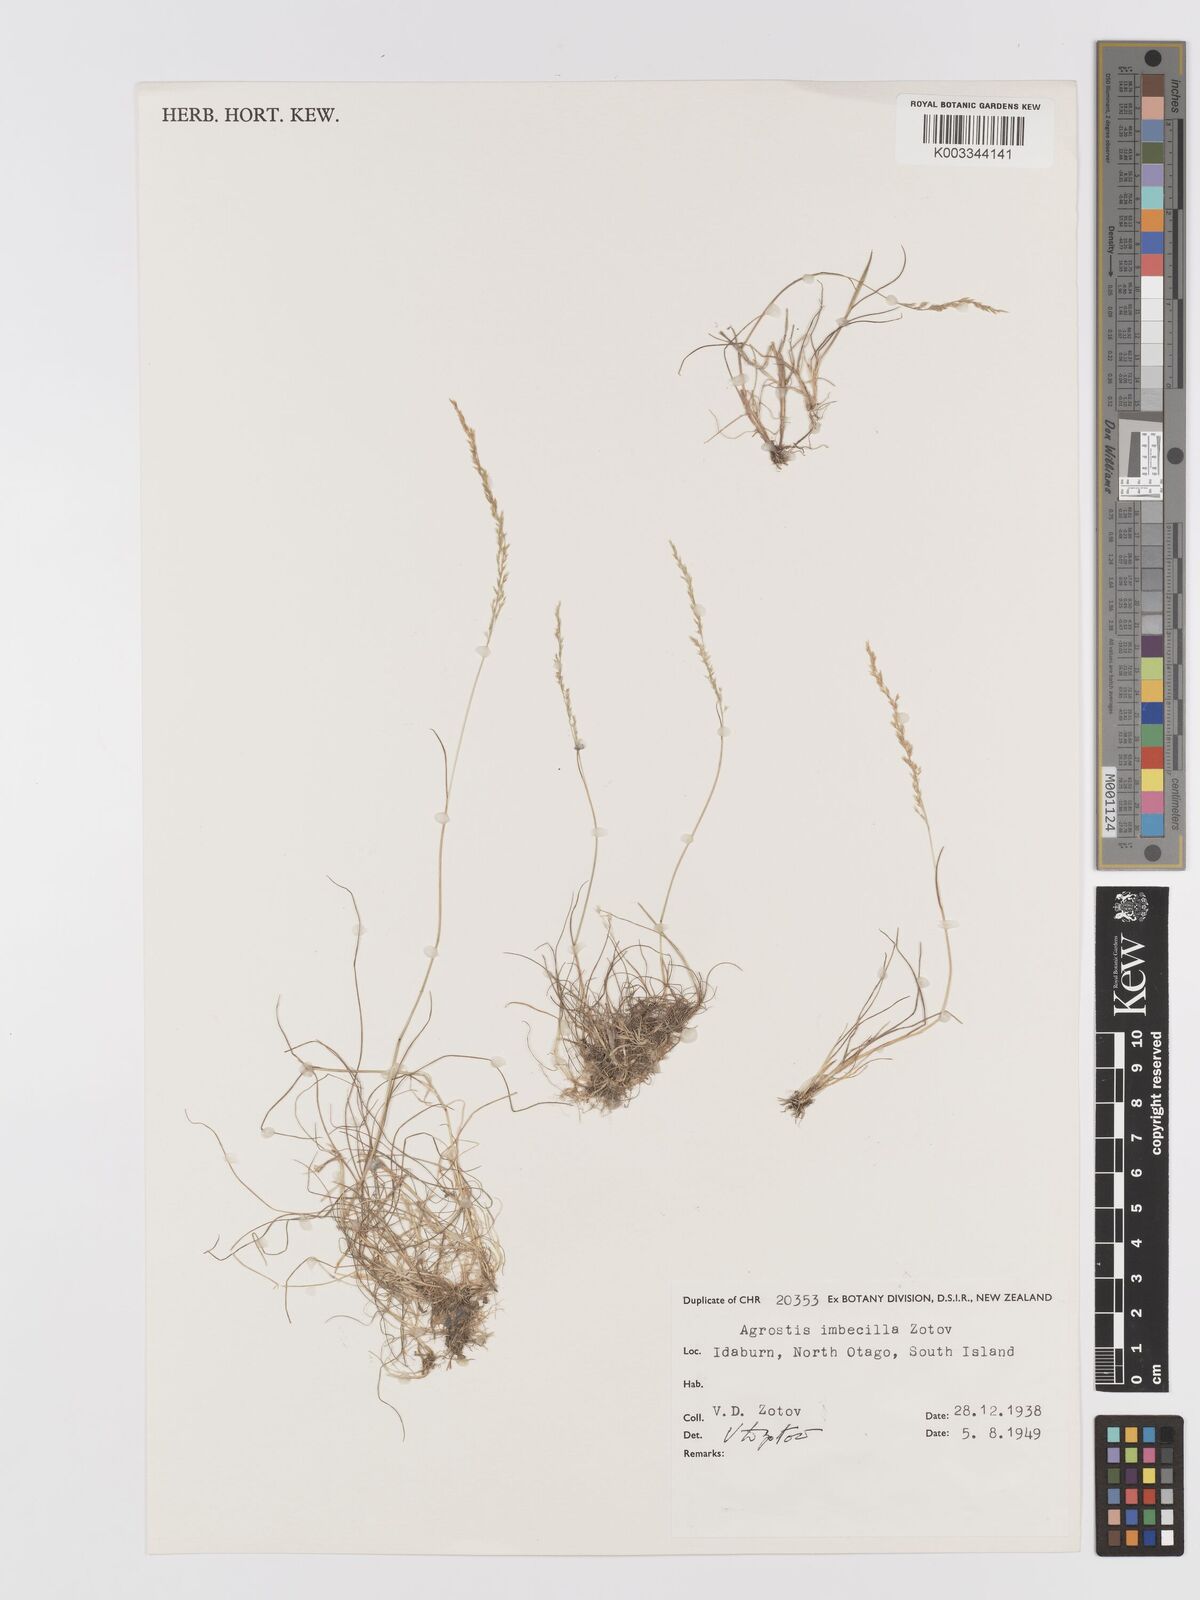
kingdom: Plantae
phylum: Tracheophyta
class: Liliopsida
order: Poales
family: Poaceae
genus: Agrostis
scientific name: Agrostis imbecilla
